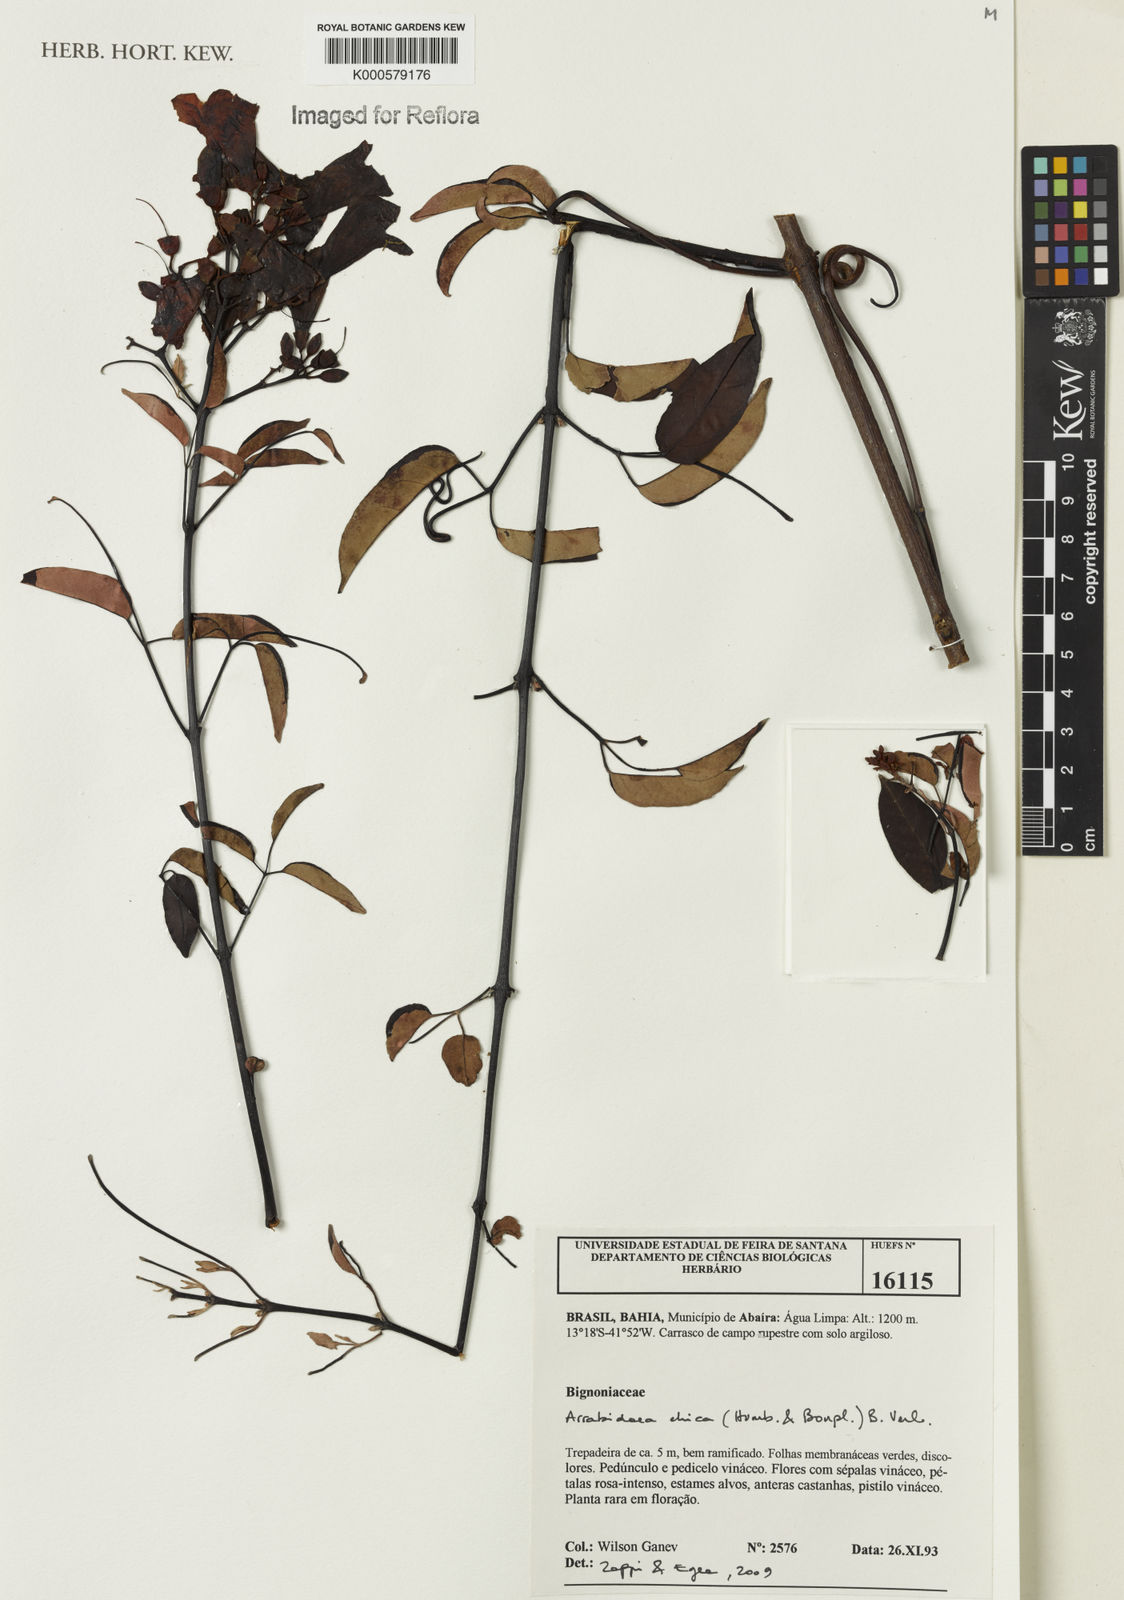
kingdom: Plantae
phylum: Tracheophyta
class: Magnoliopsida
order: Lamiales
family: Bignoniaceae
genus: Fridericia
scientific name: Fridericia chica
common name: Cricketvine
